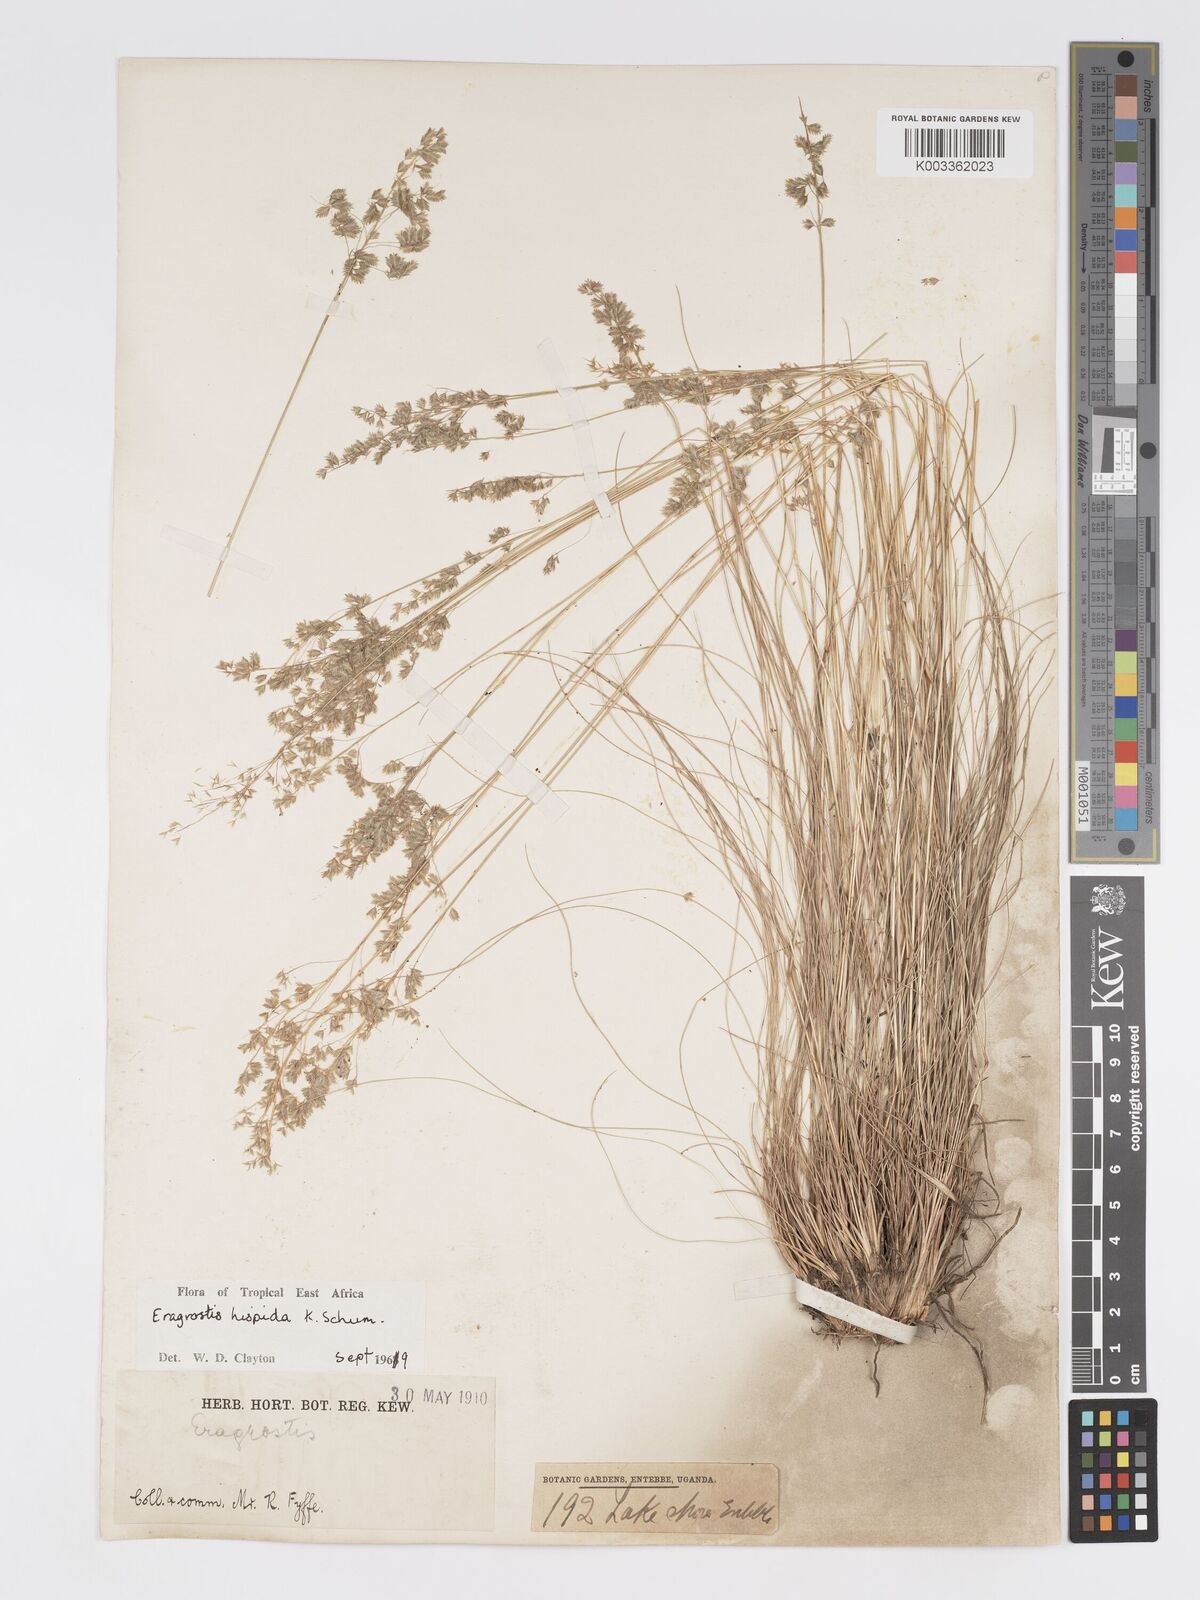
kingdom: Plantae
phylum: Tracheophyta
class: Liliopsida
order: Poales
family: Poaceae
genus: Eragrostis
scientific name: Eragrostis hispida
